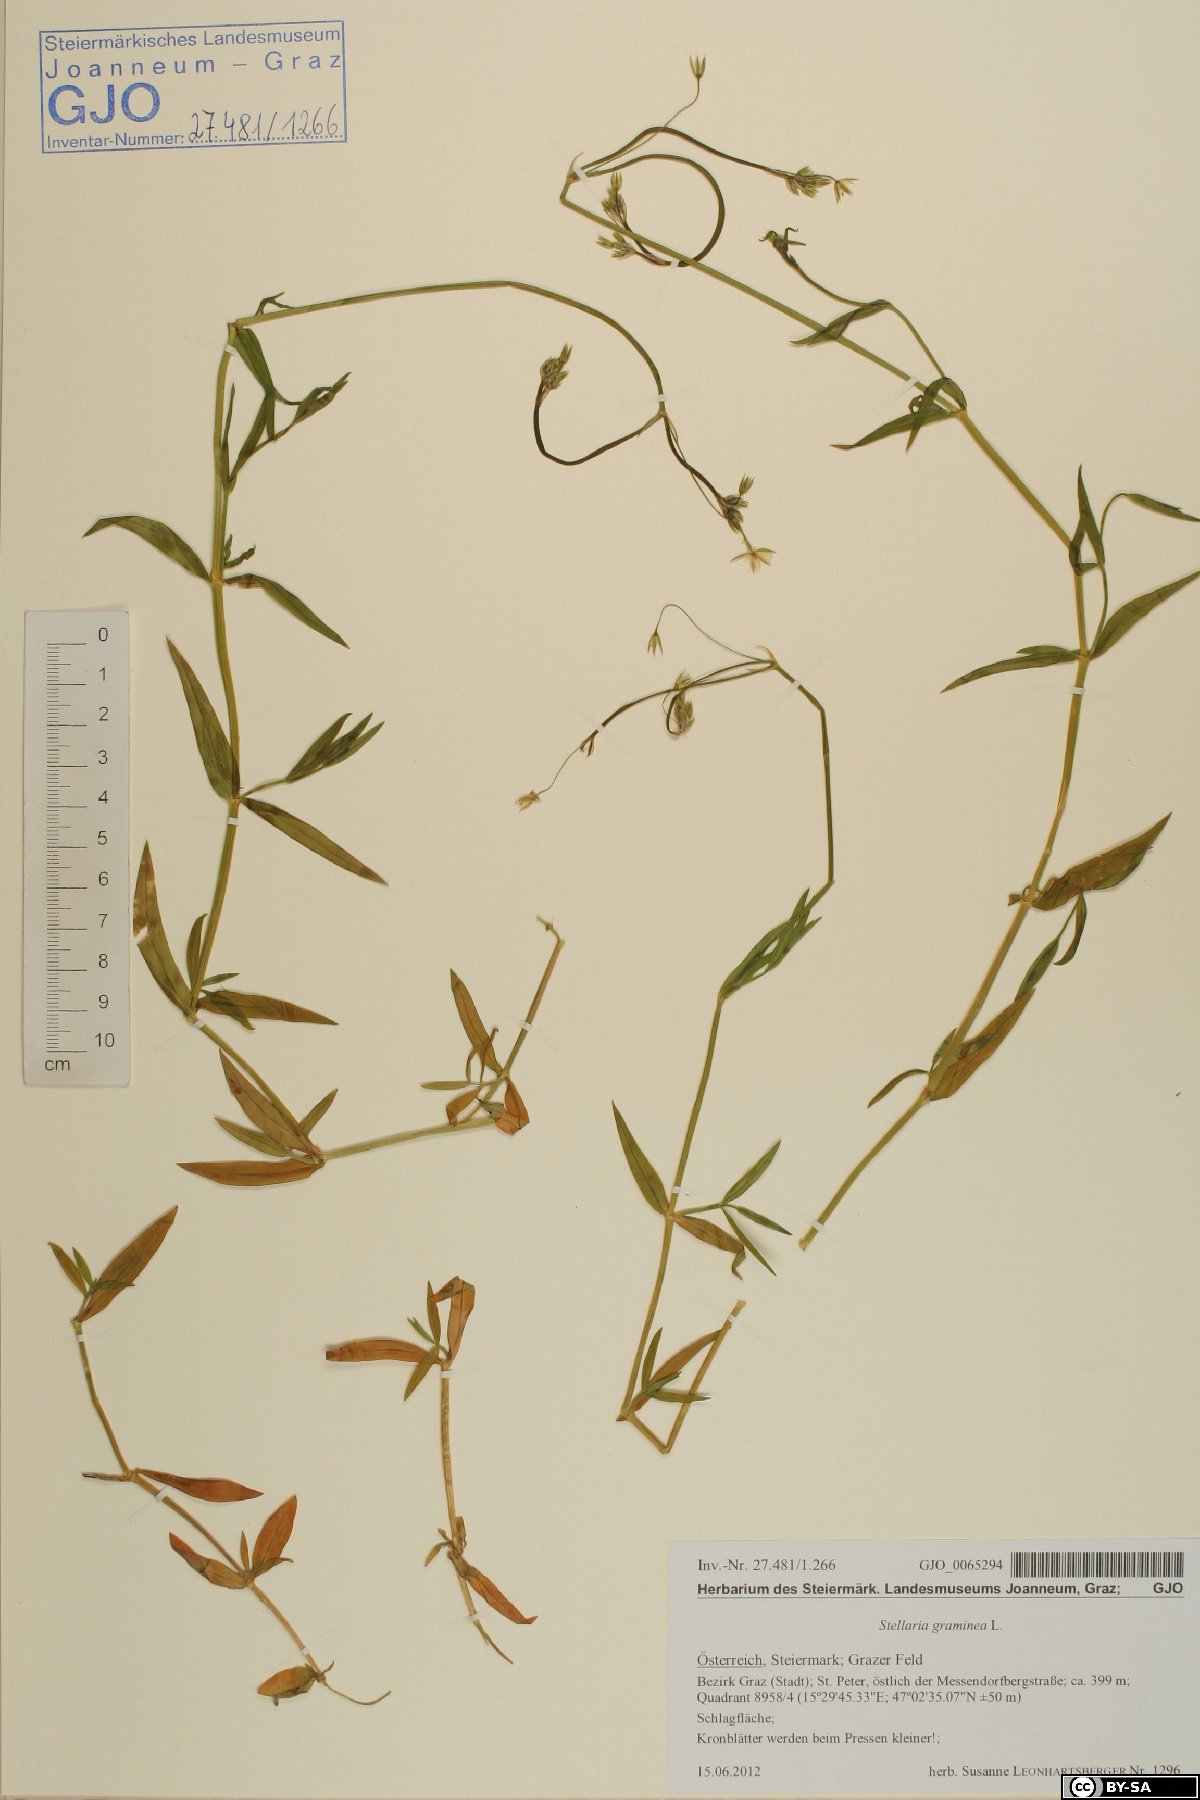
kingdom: Plantae
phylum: Tracheophyta
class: Magnoliopsida
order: Caryophyllales
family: Caryophyllaceae
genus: Stellaria
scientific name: Stellaria graminea
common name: Grass-like starwort
